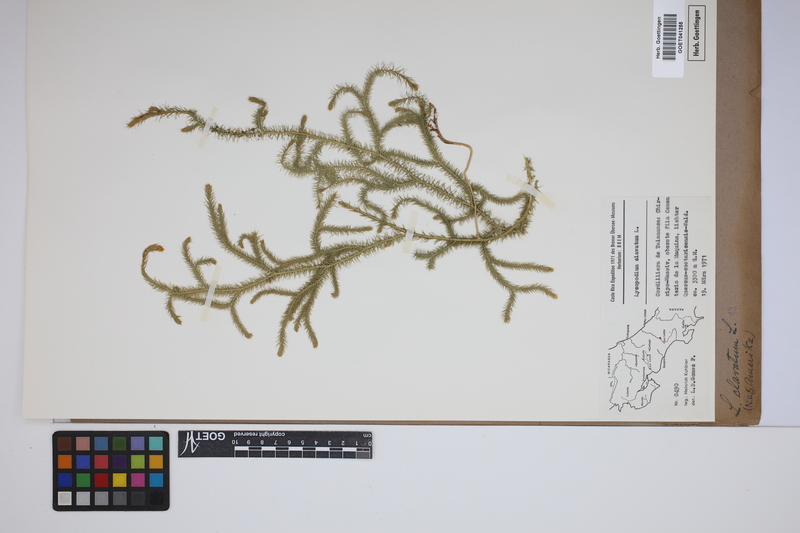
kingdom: Plantae
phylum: Tracheophyta
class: Lycopodiopsida
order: Lycopodiales
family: Lycopodiaceae
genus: Lycopodium
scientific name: Lycopodium clavatum
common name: Stag's-horn clubmoss
